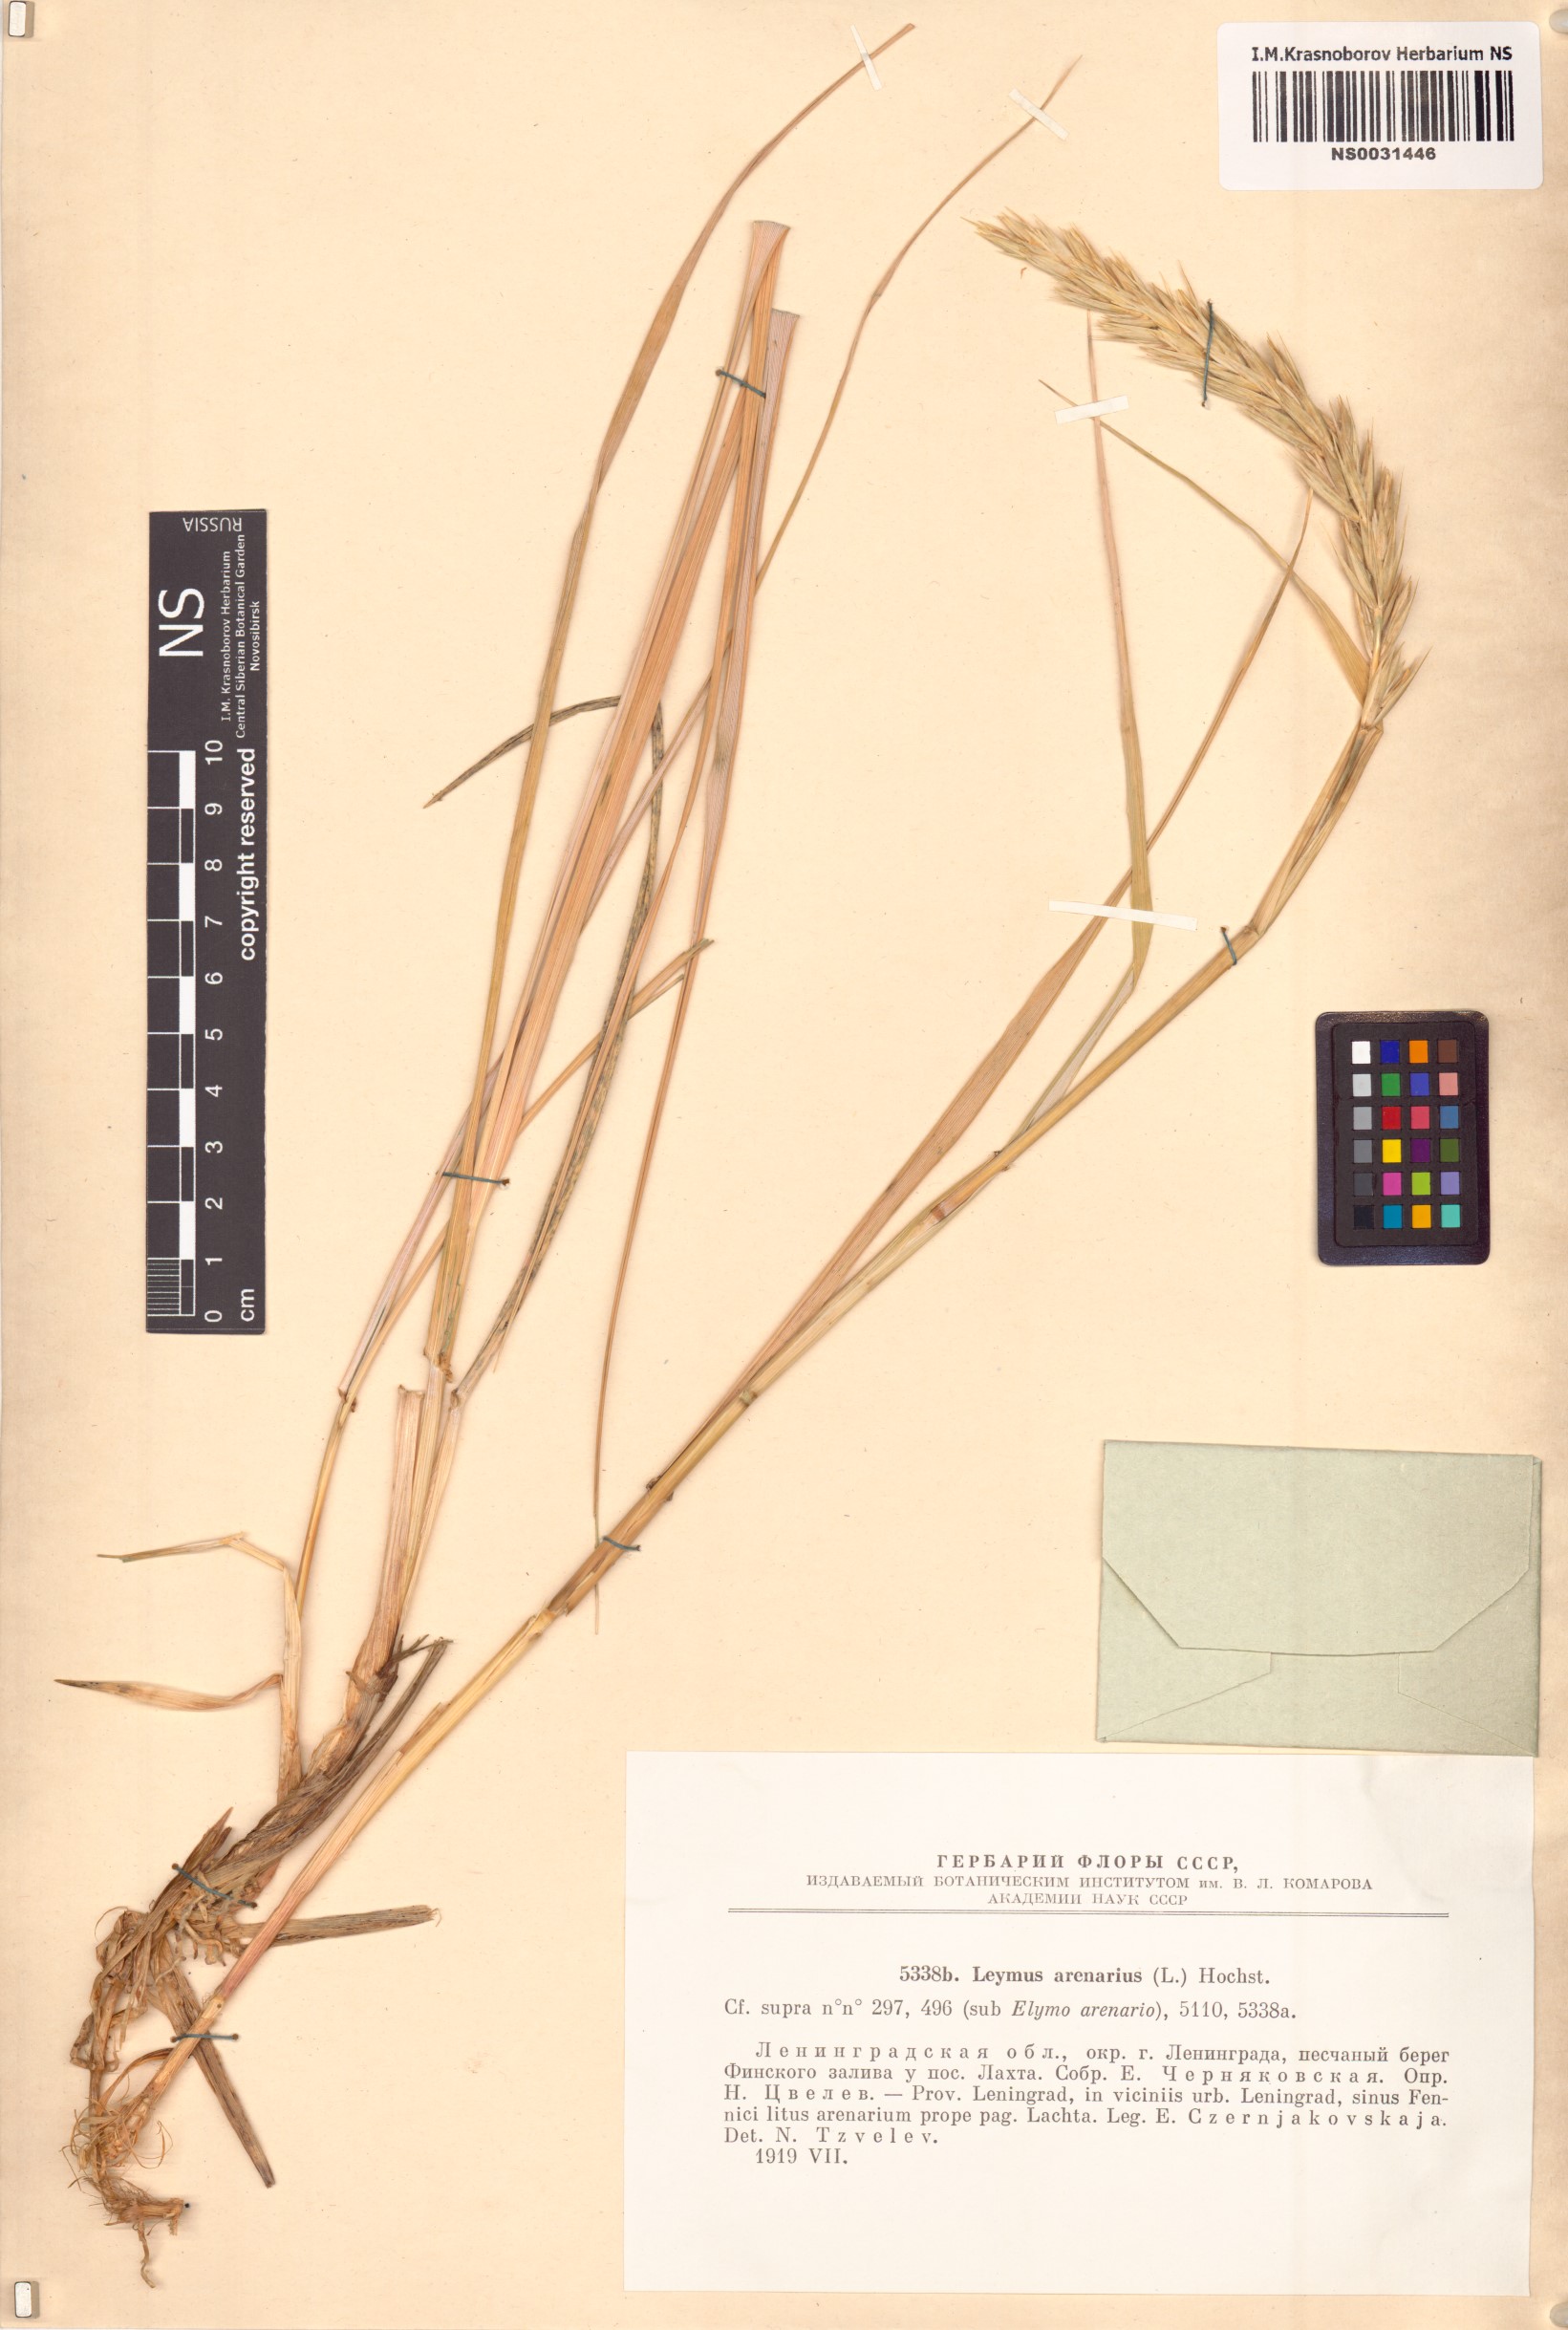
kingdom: Plantae
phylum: Tracheophyta
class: Liliopsida
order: Poales
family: Poaceae
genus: Leymus
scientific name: Leymus arenarius
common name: Lyme-grass
